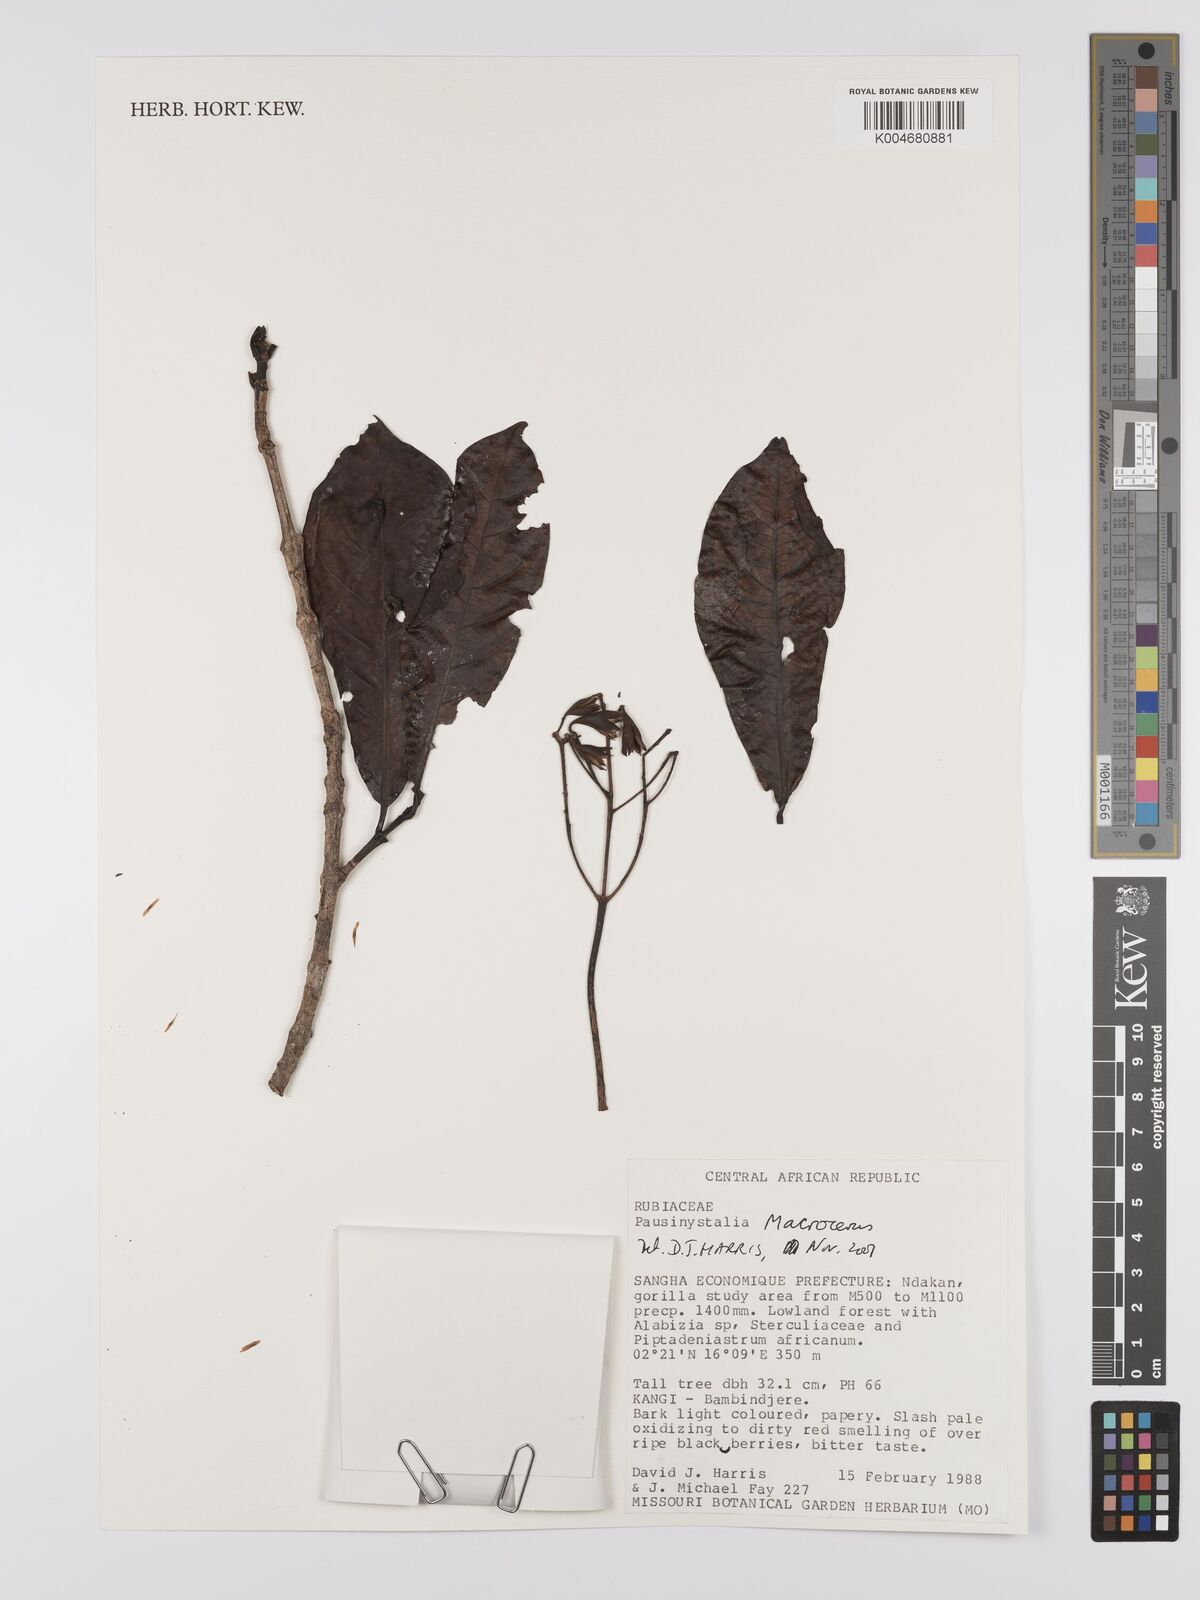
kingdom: Plantae
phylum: Tracheophyta
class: Magnoliopsida
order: Gentianales
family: Rubiaceae
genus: Corynanthe
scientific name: Corynanthe macroceras
